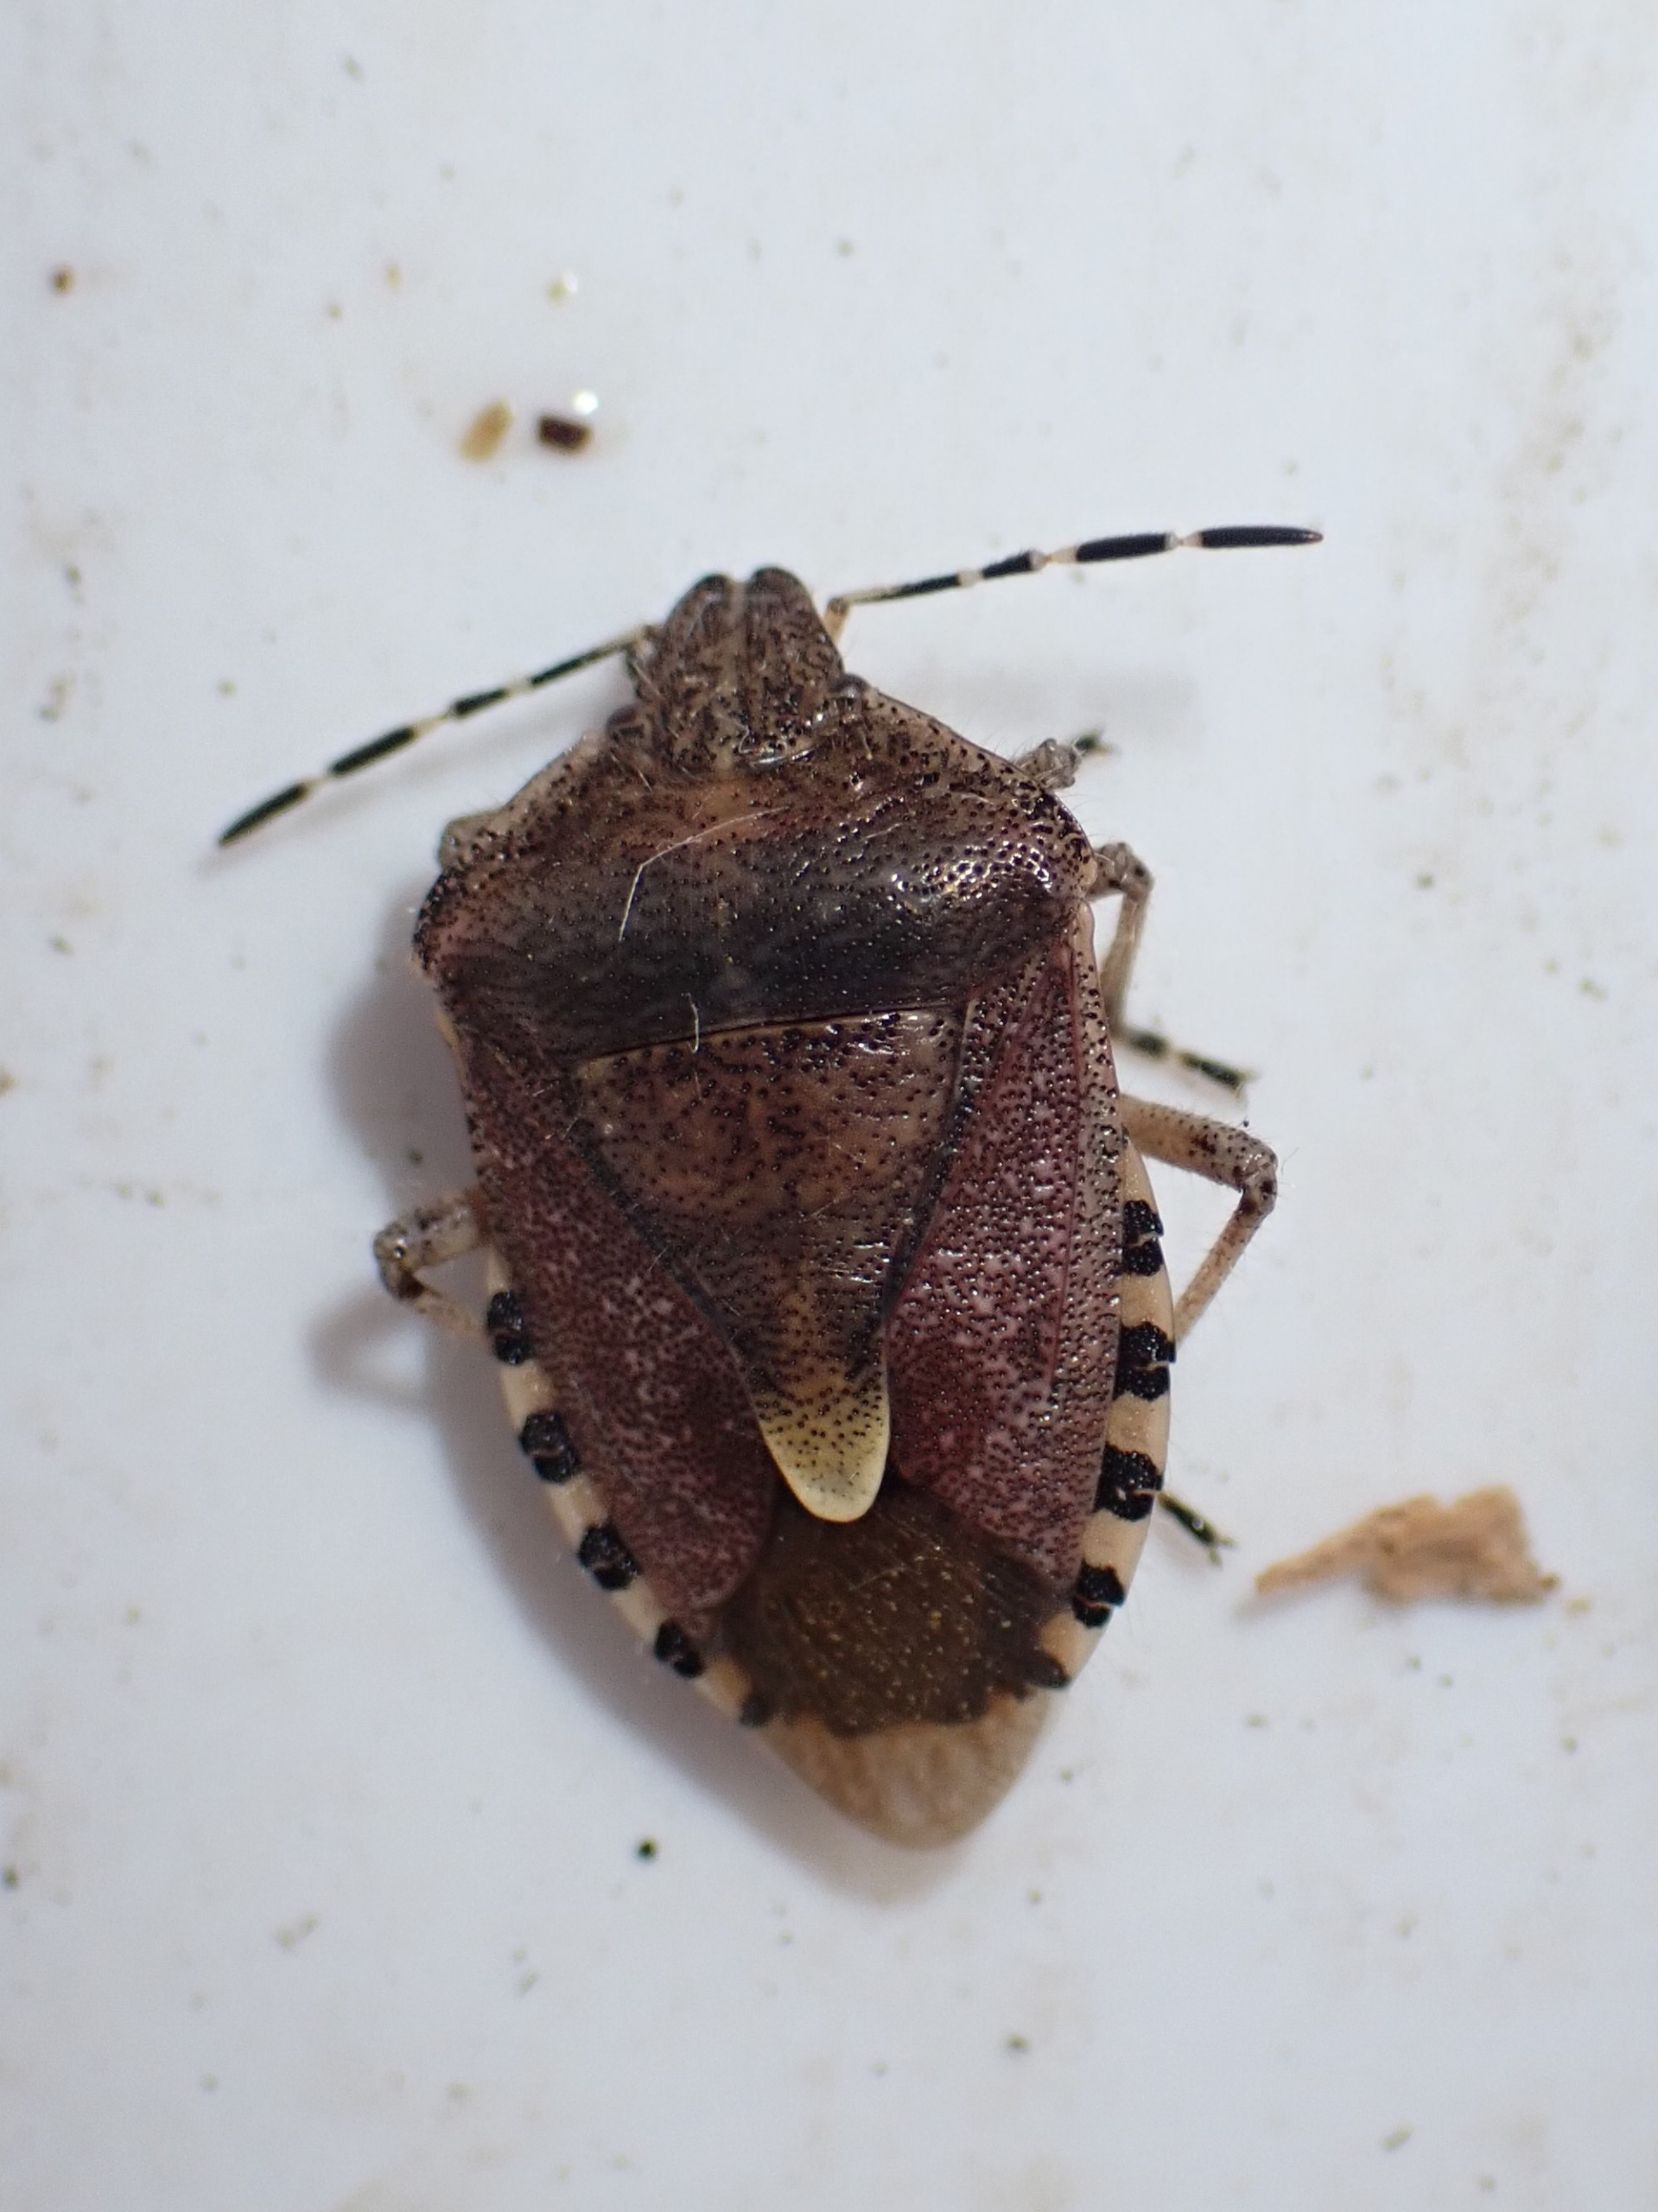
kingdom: Animalia
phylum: Arthropoda
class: Insecta
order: Hemiptera
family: Pentatomidae
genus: Dolycoris
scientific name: Dolycoris baccarum
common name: Almindelig bærtæge
